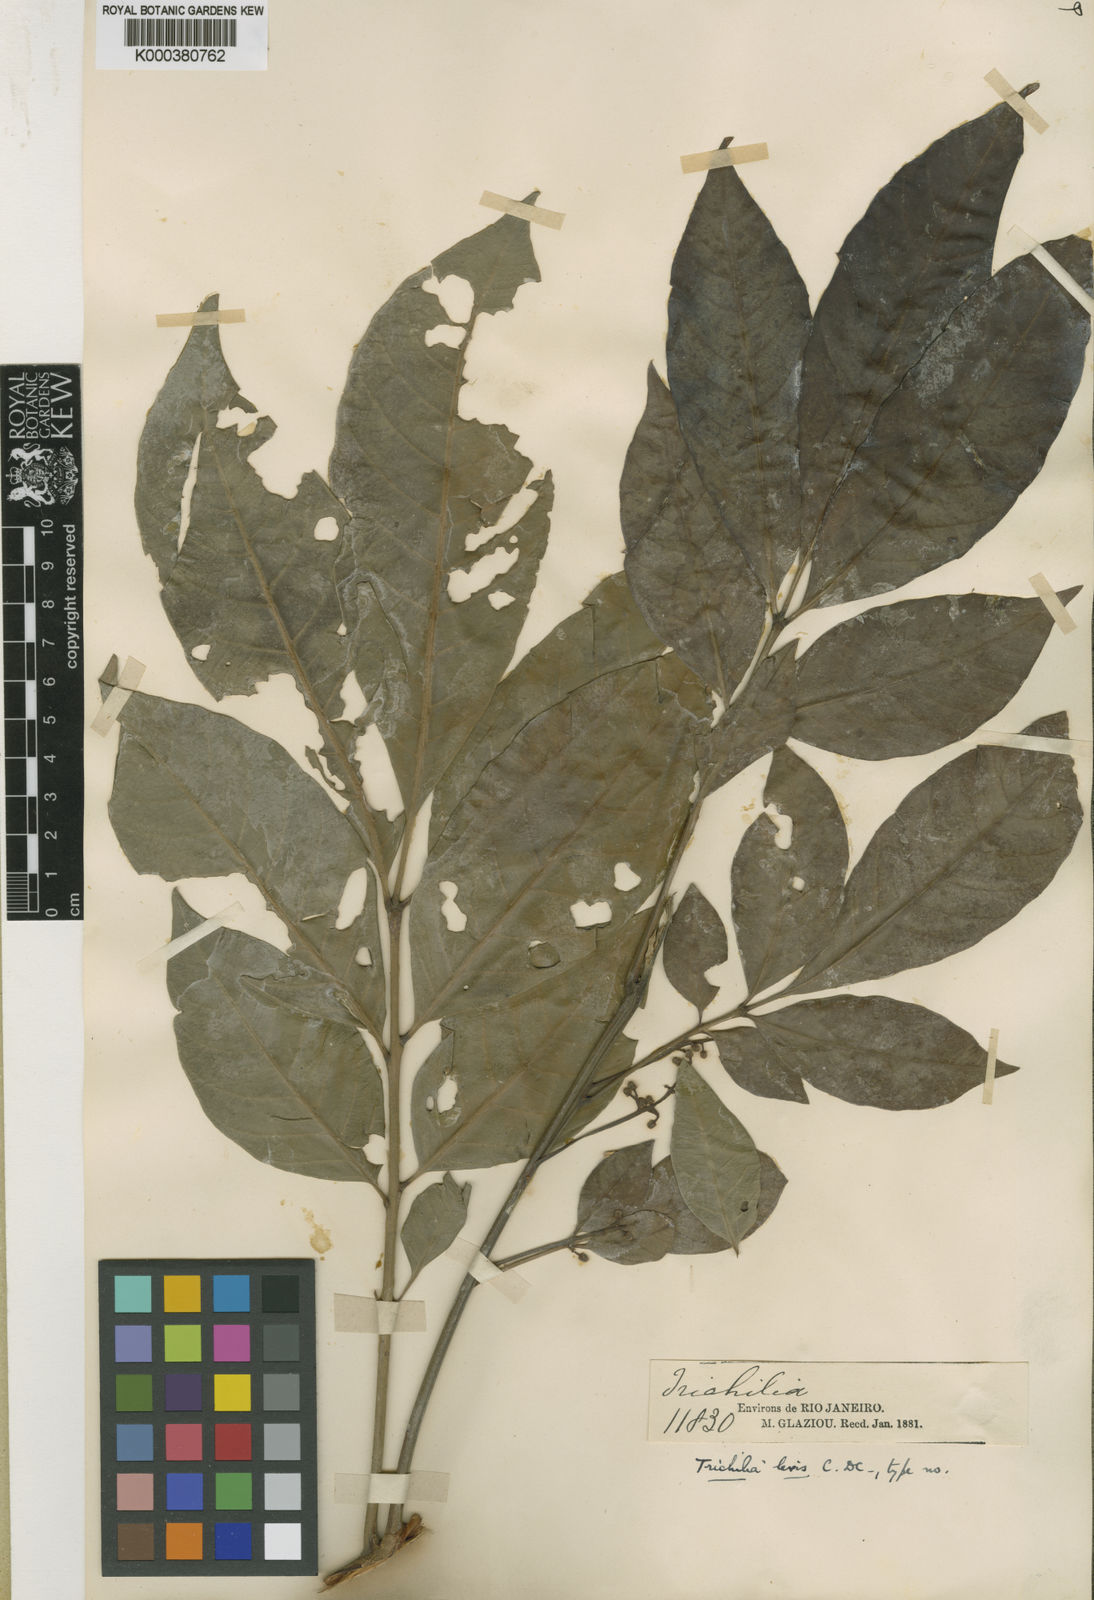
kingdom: Plantae
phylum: Tracheophyta
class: Magnoliopsida
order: Sapindales
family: Meliaceae
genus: Trichilia
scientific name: Trichilia pallens
